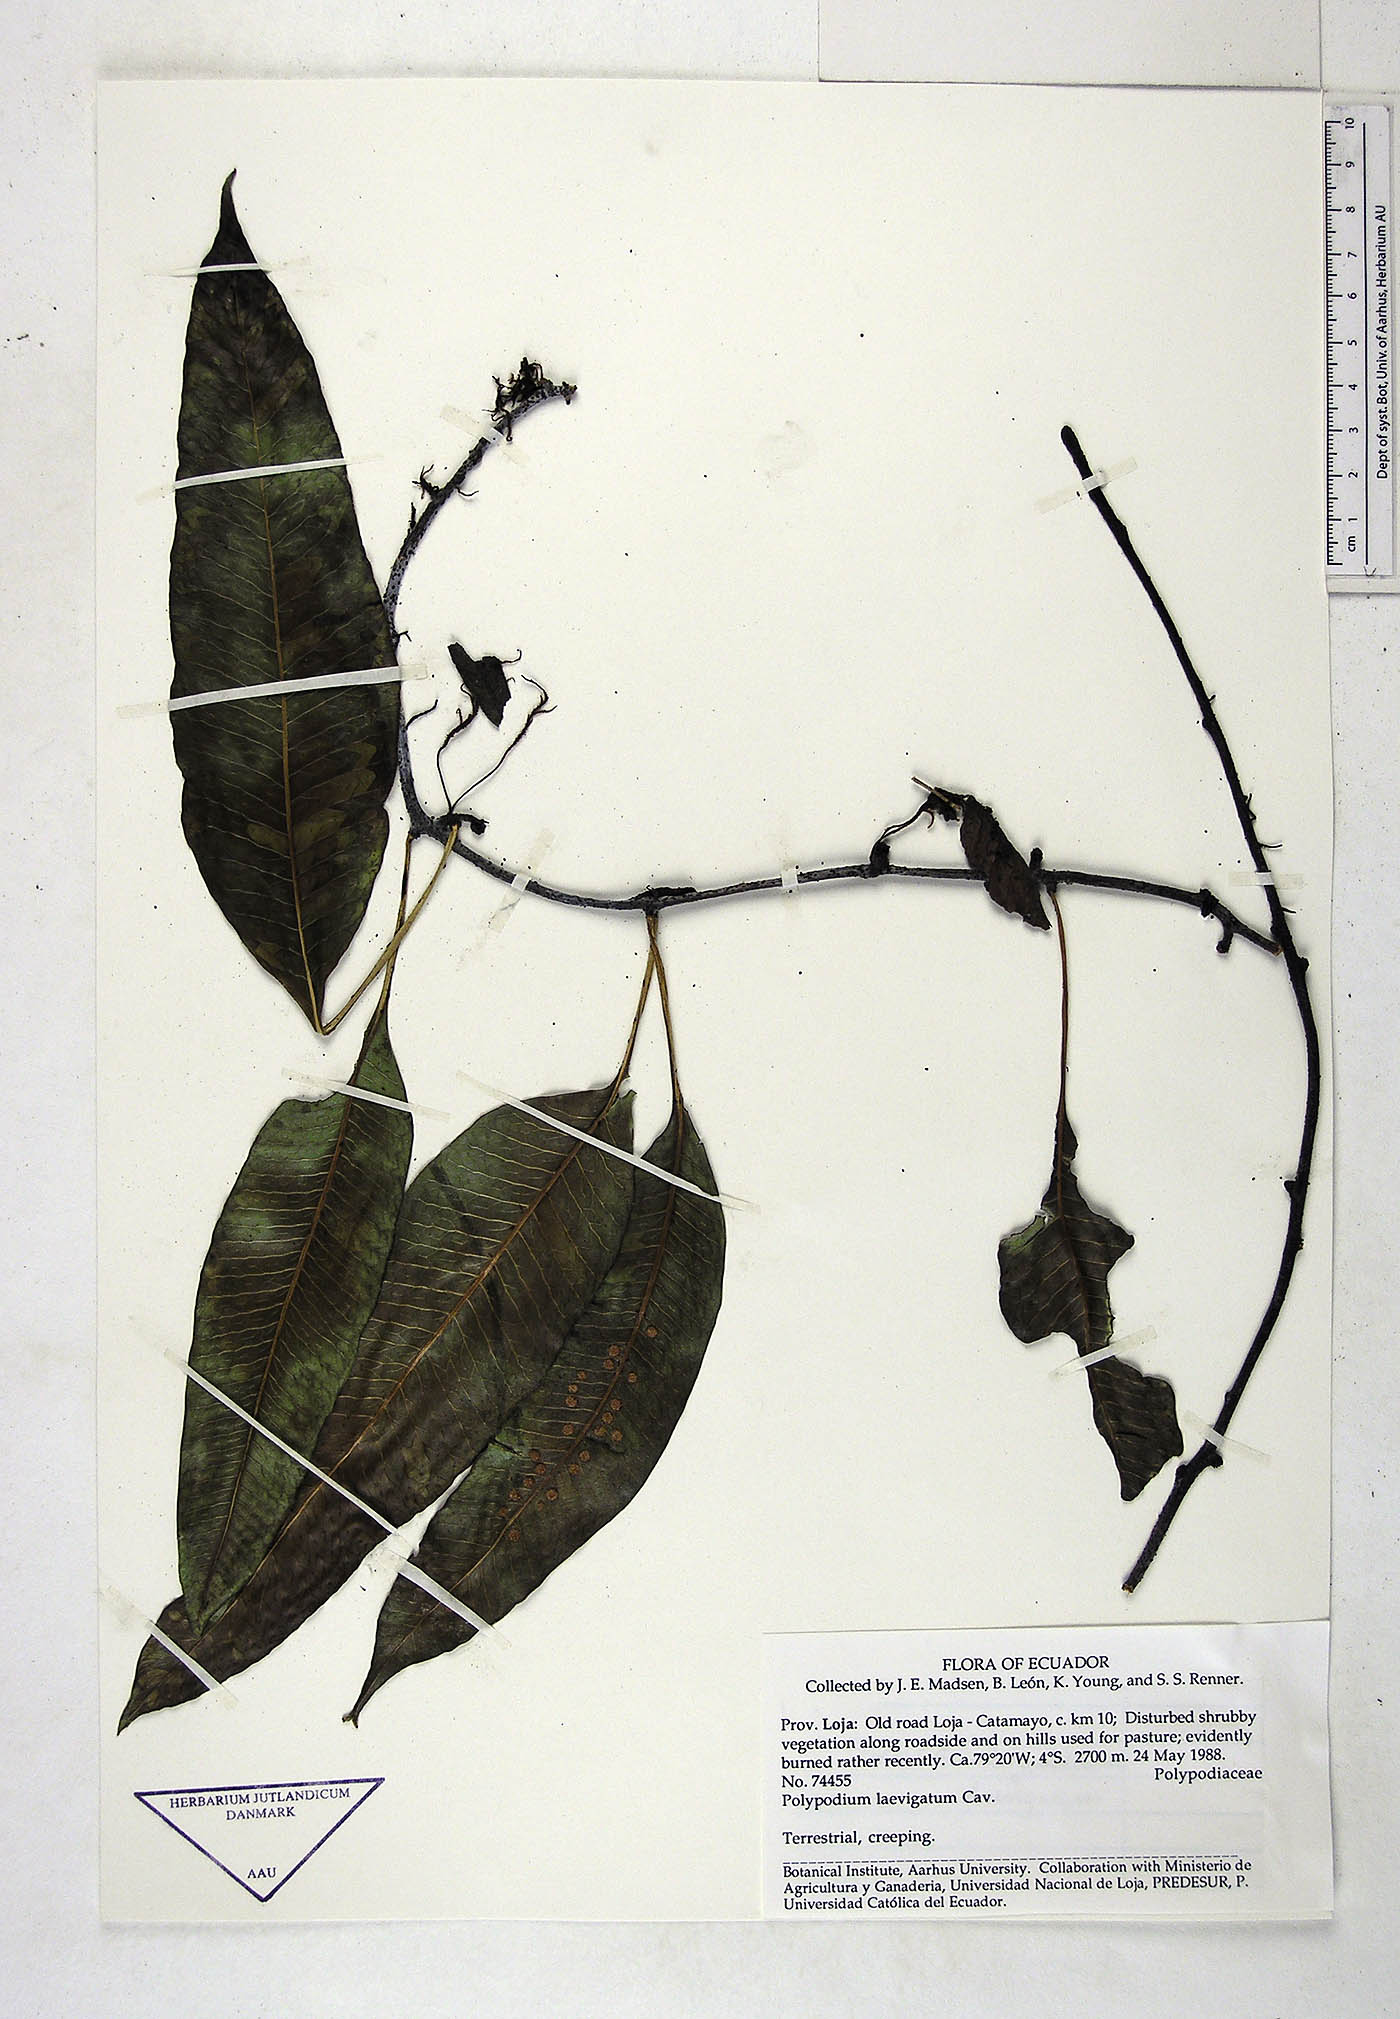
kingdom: Plantae
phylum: Tracheophyta
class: Polypodiopsida
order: Polypodiales
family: Polypodiaceae
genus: Serpocaulon
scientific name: Serpocaulon laevigatum
